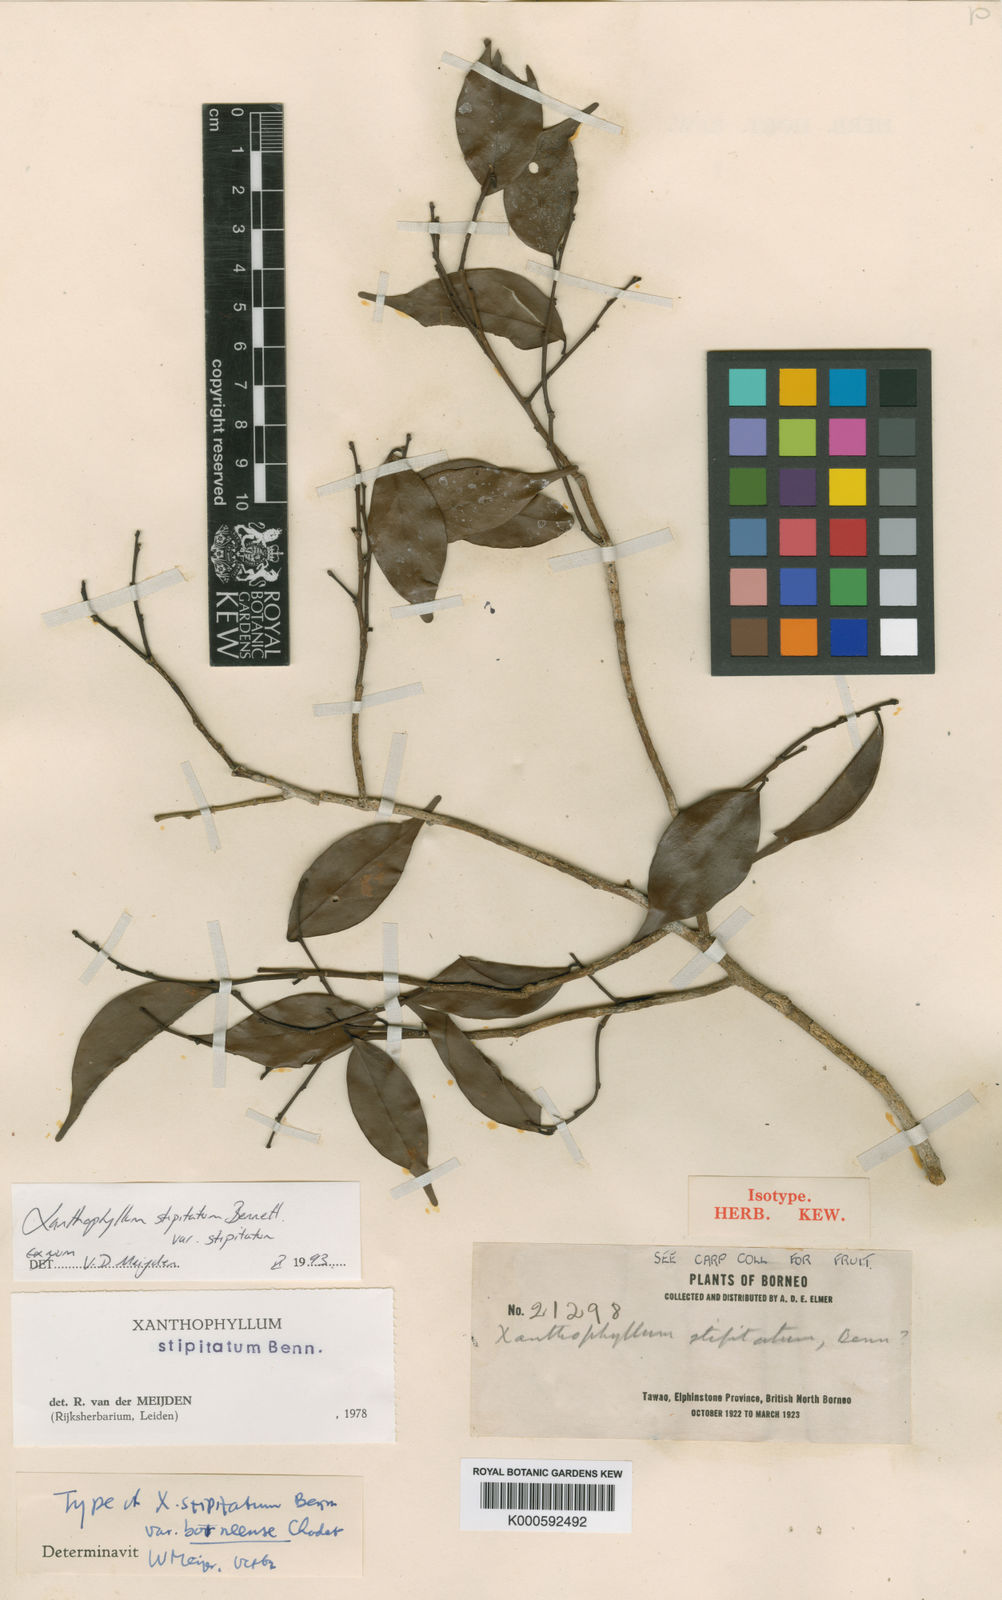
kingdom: Plantae
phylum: Tracheophyta
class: Magnoliopsida
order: Fabales
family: Polygalaceae
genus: Xanthophyllum
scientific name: Xanthophyllum stipitatum
